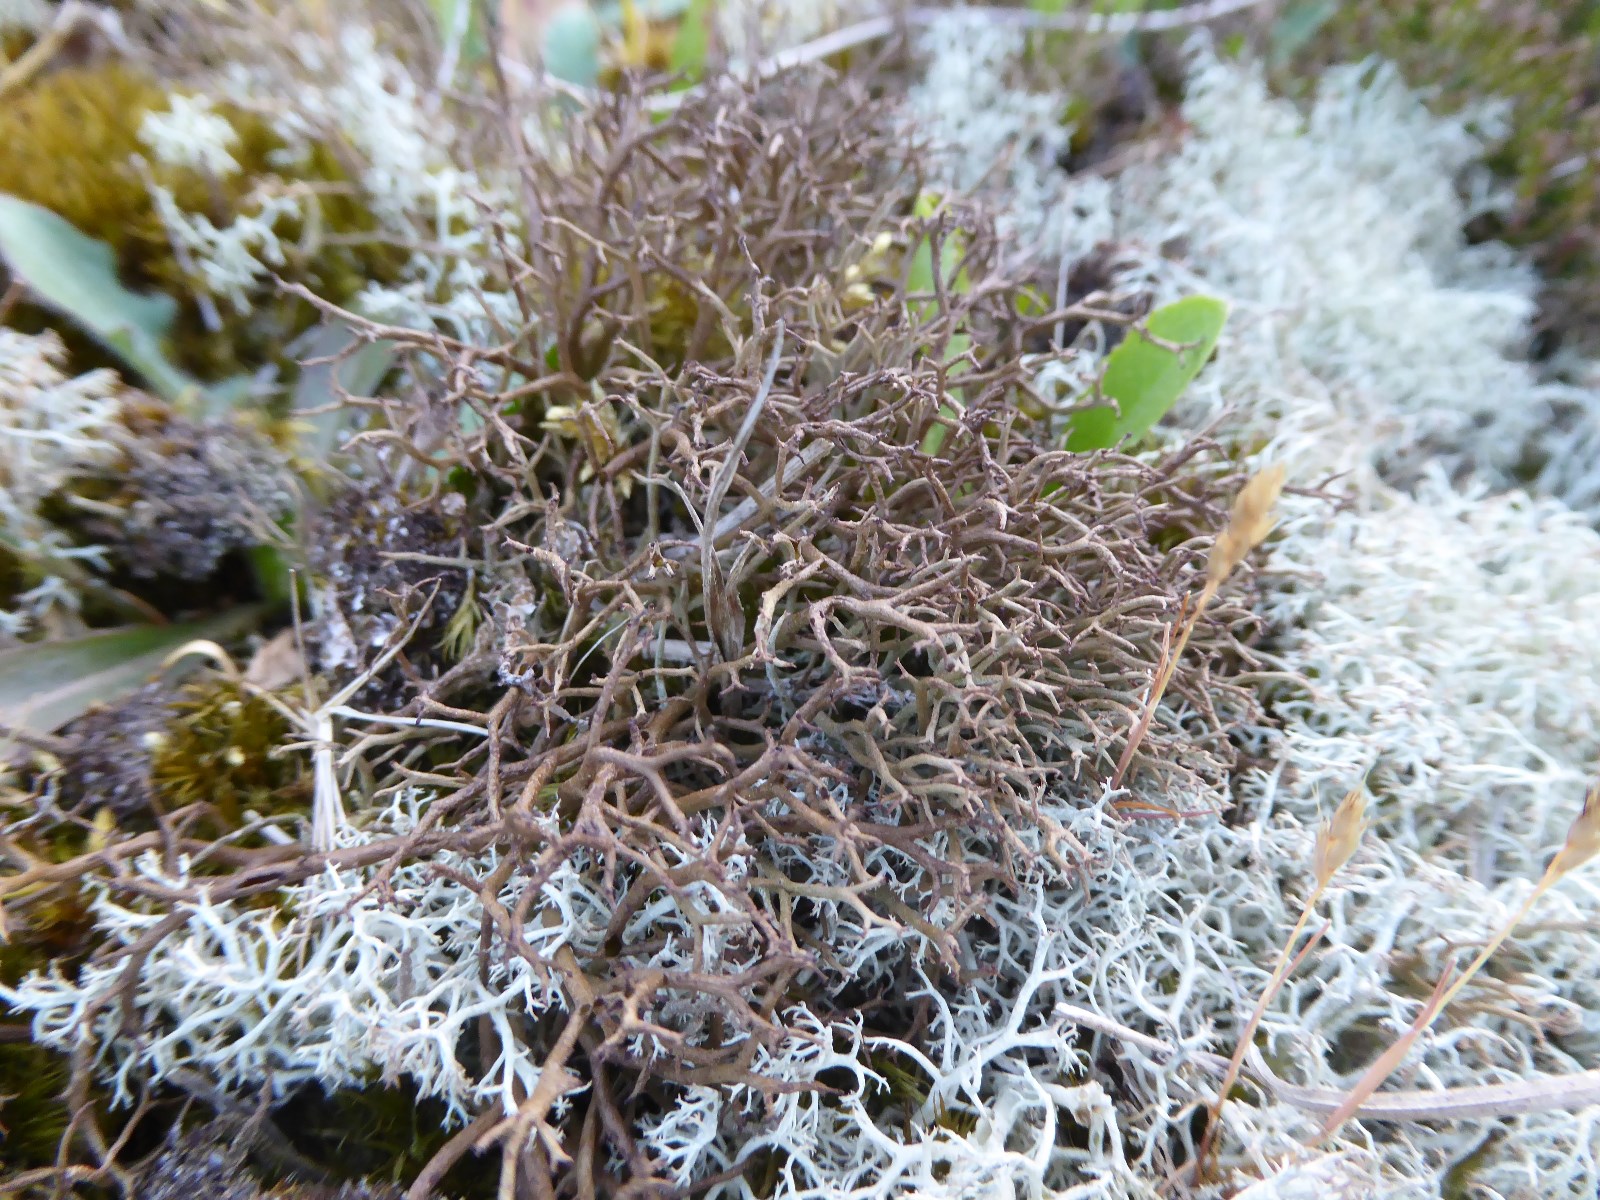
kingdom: Fungi
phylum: Ascomycota
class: Lecanoromycetes
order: Lecanorales
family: Cladoniaceae
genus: Cladonia
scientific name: Cladonia furcata
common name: kløftet bægerlav
